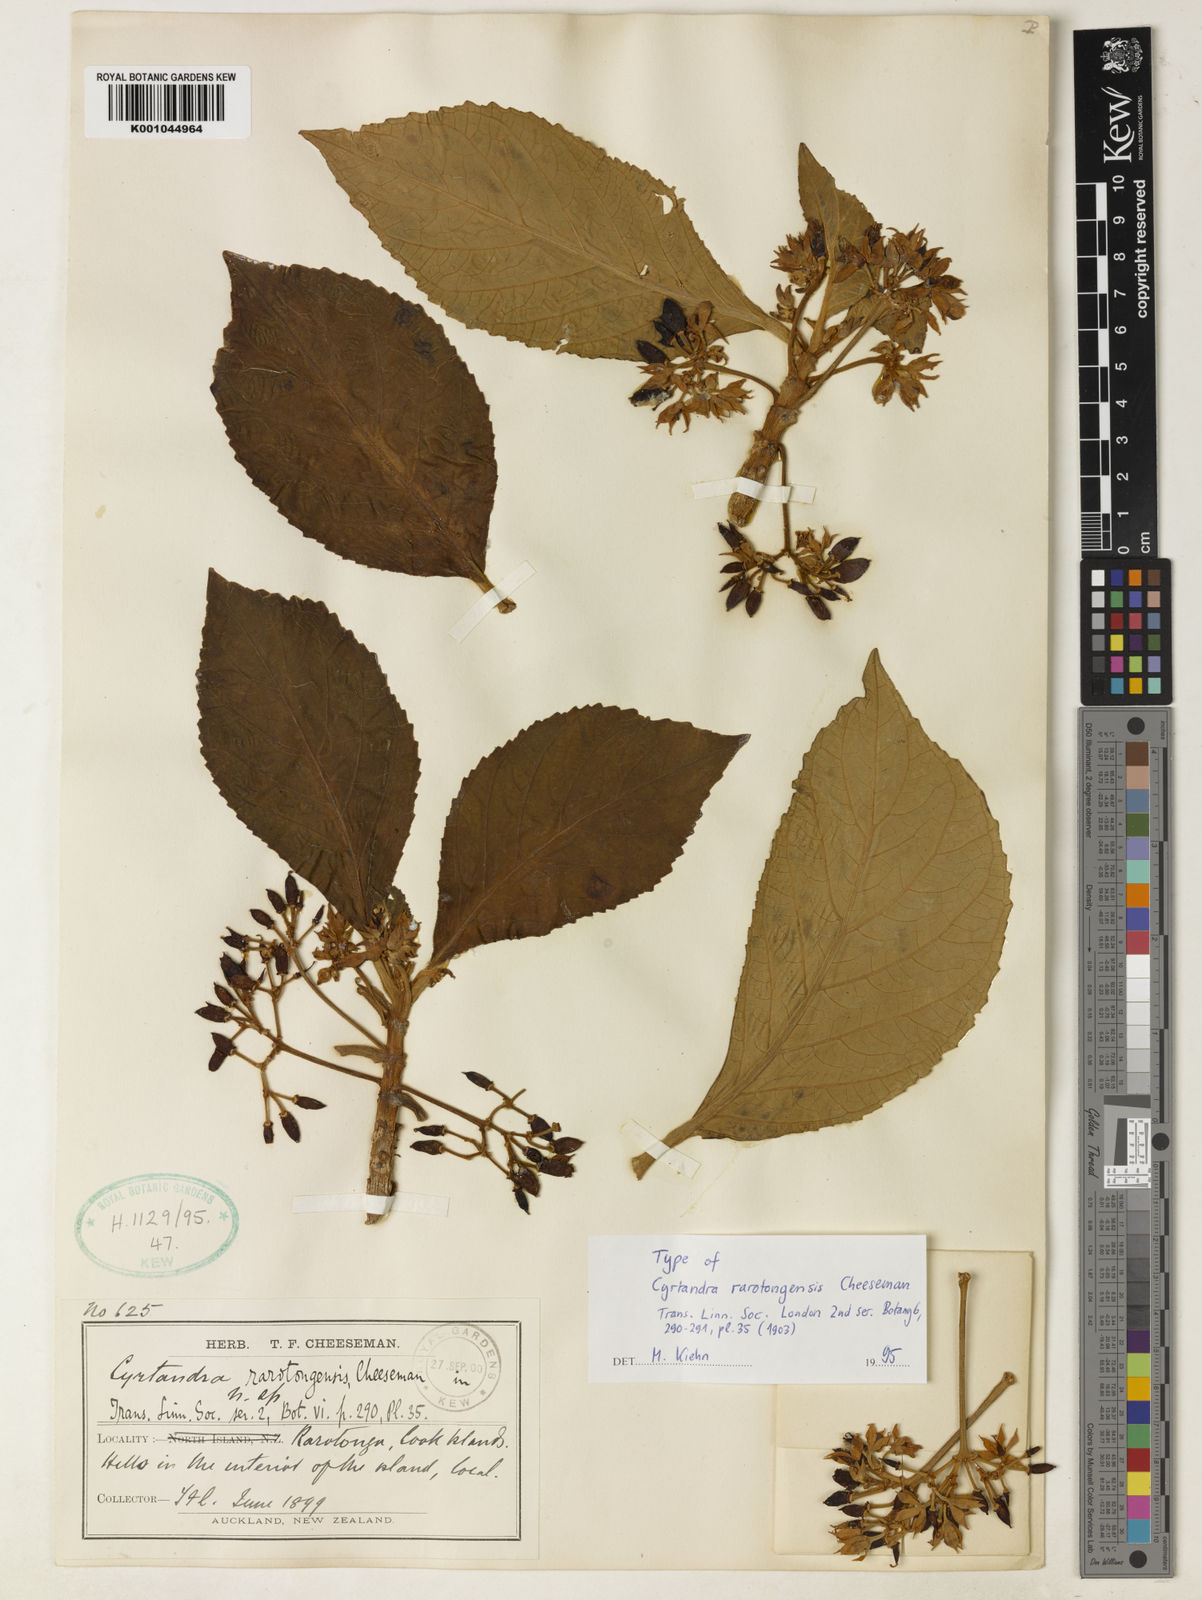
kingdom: Plantae
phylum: Tracheophyta
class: Magnoliopsida
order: Lamiales
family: Gesneriaceae
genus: Cyrtandra
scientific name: Cyrtandra rarotongensis
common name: Rarotonga cyrtandra
